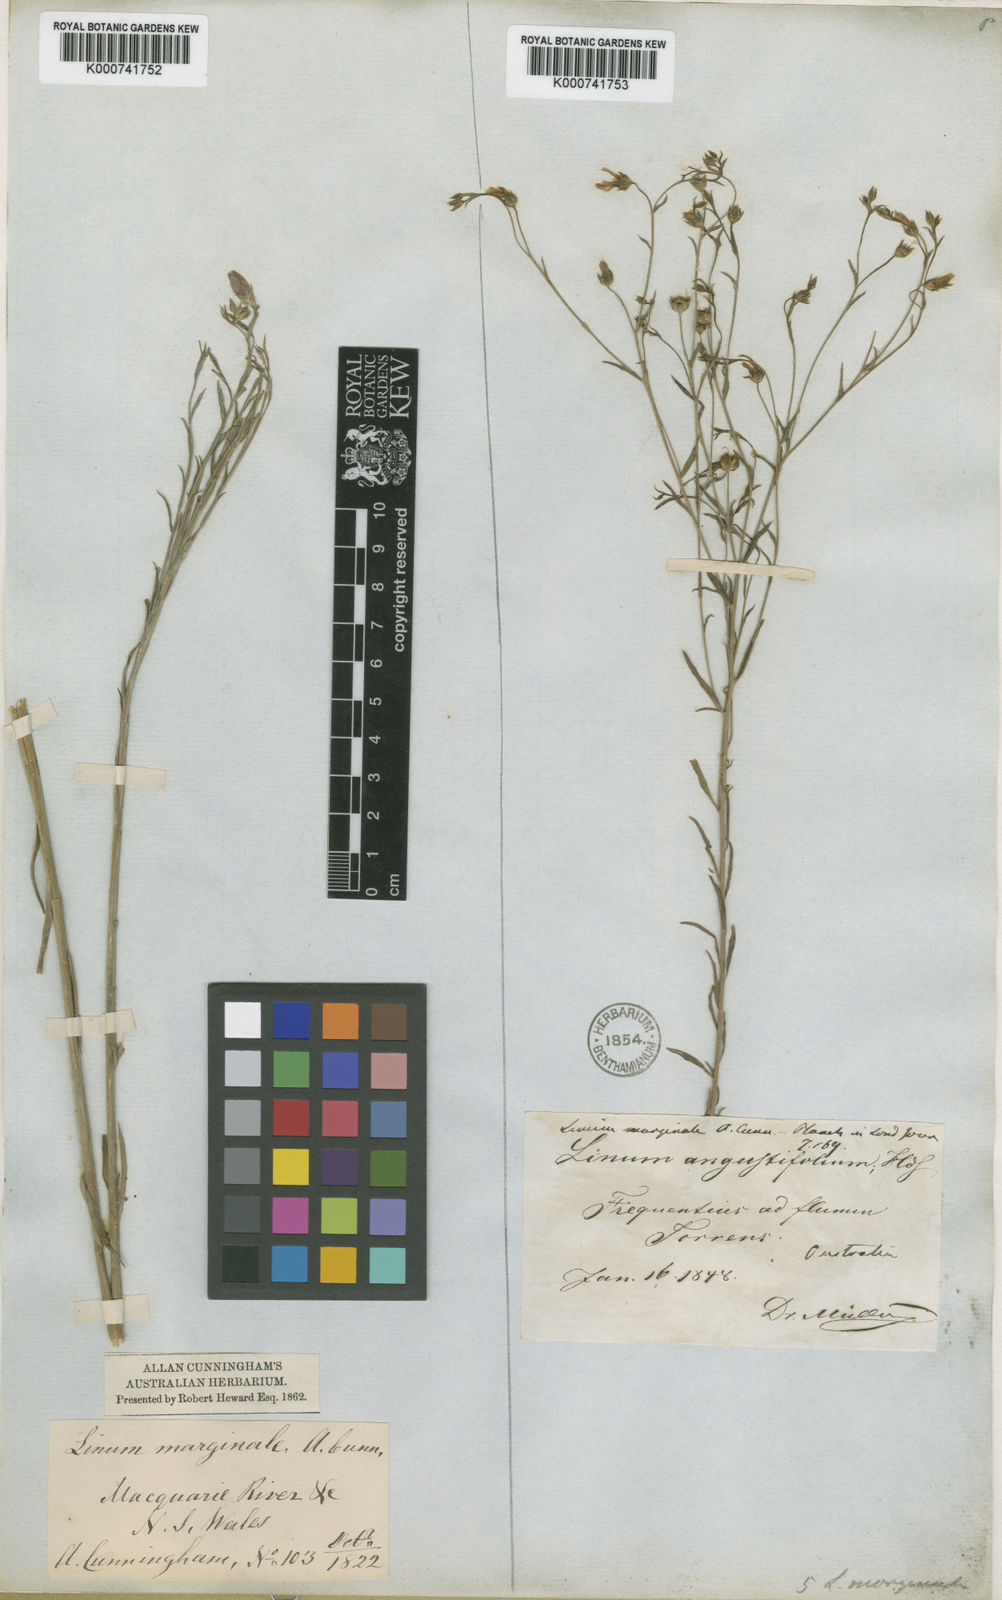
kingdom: Plantae
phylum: Tracheophyta
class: Magnoliopsida
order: Malpighiales
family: Linaceae
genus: Linum
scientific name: Linum marginale
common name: Wild flax
